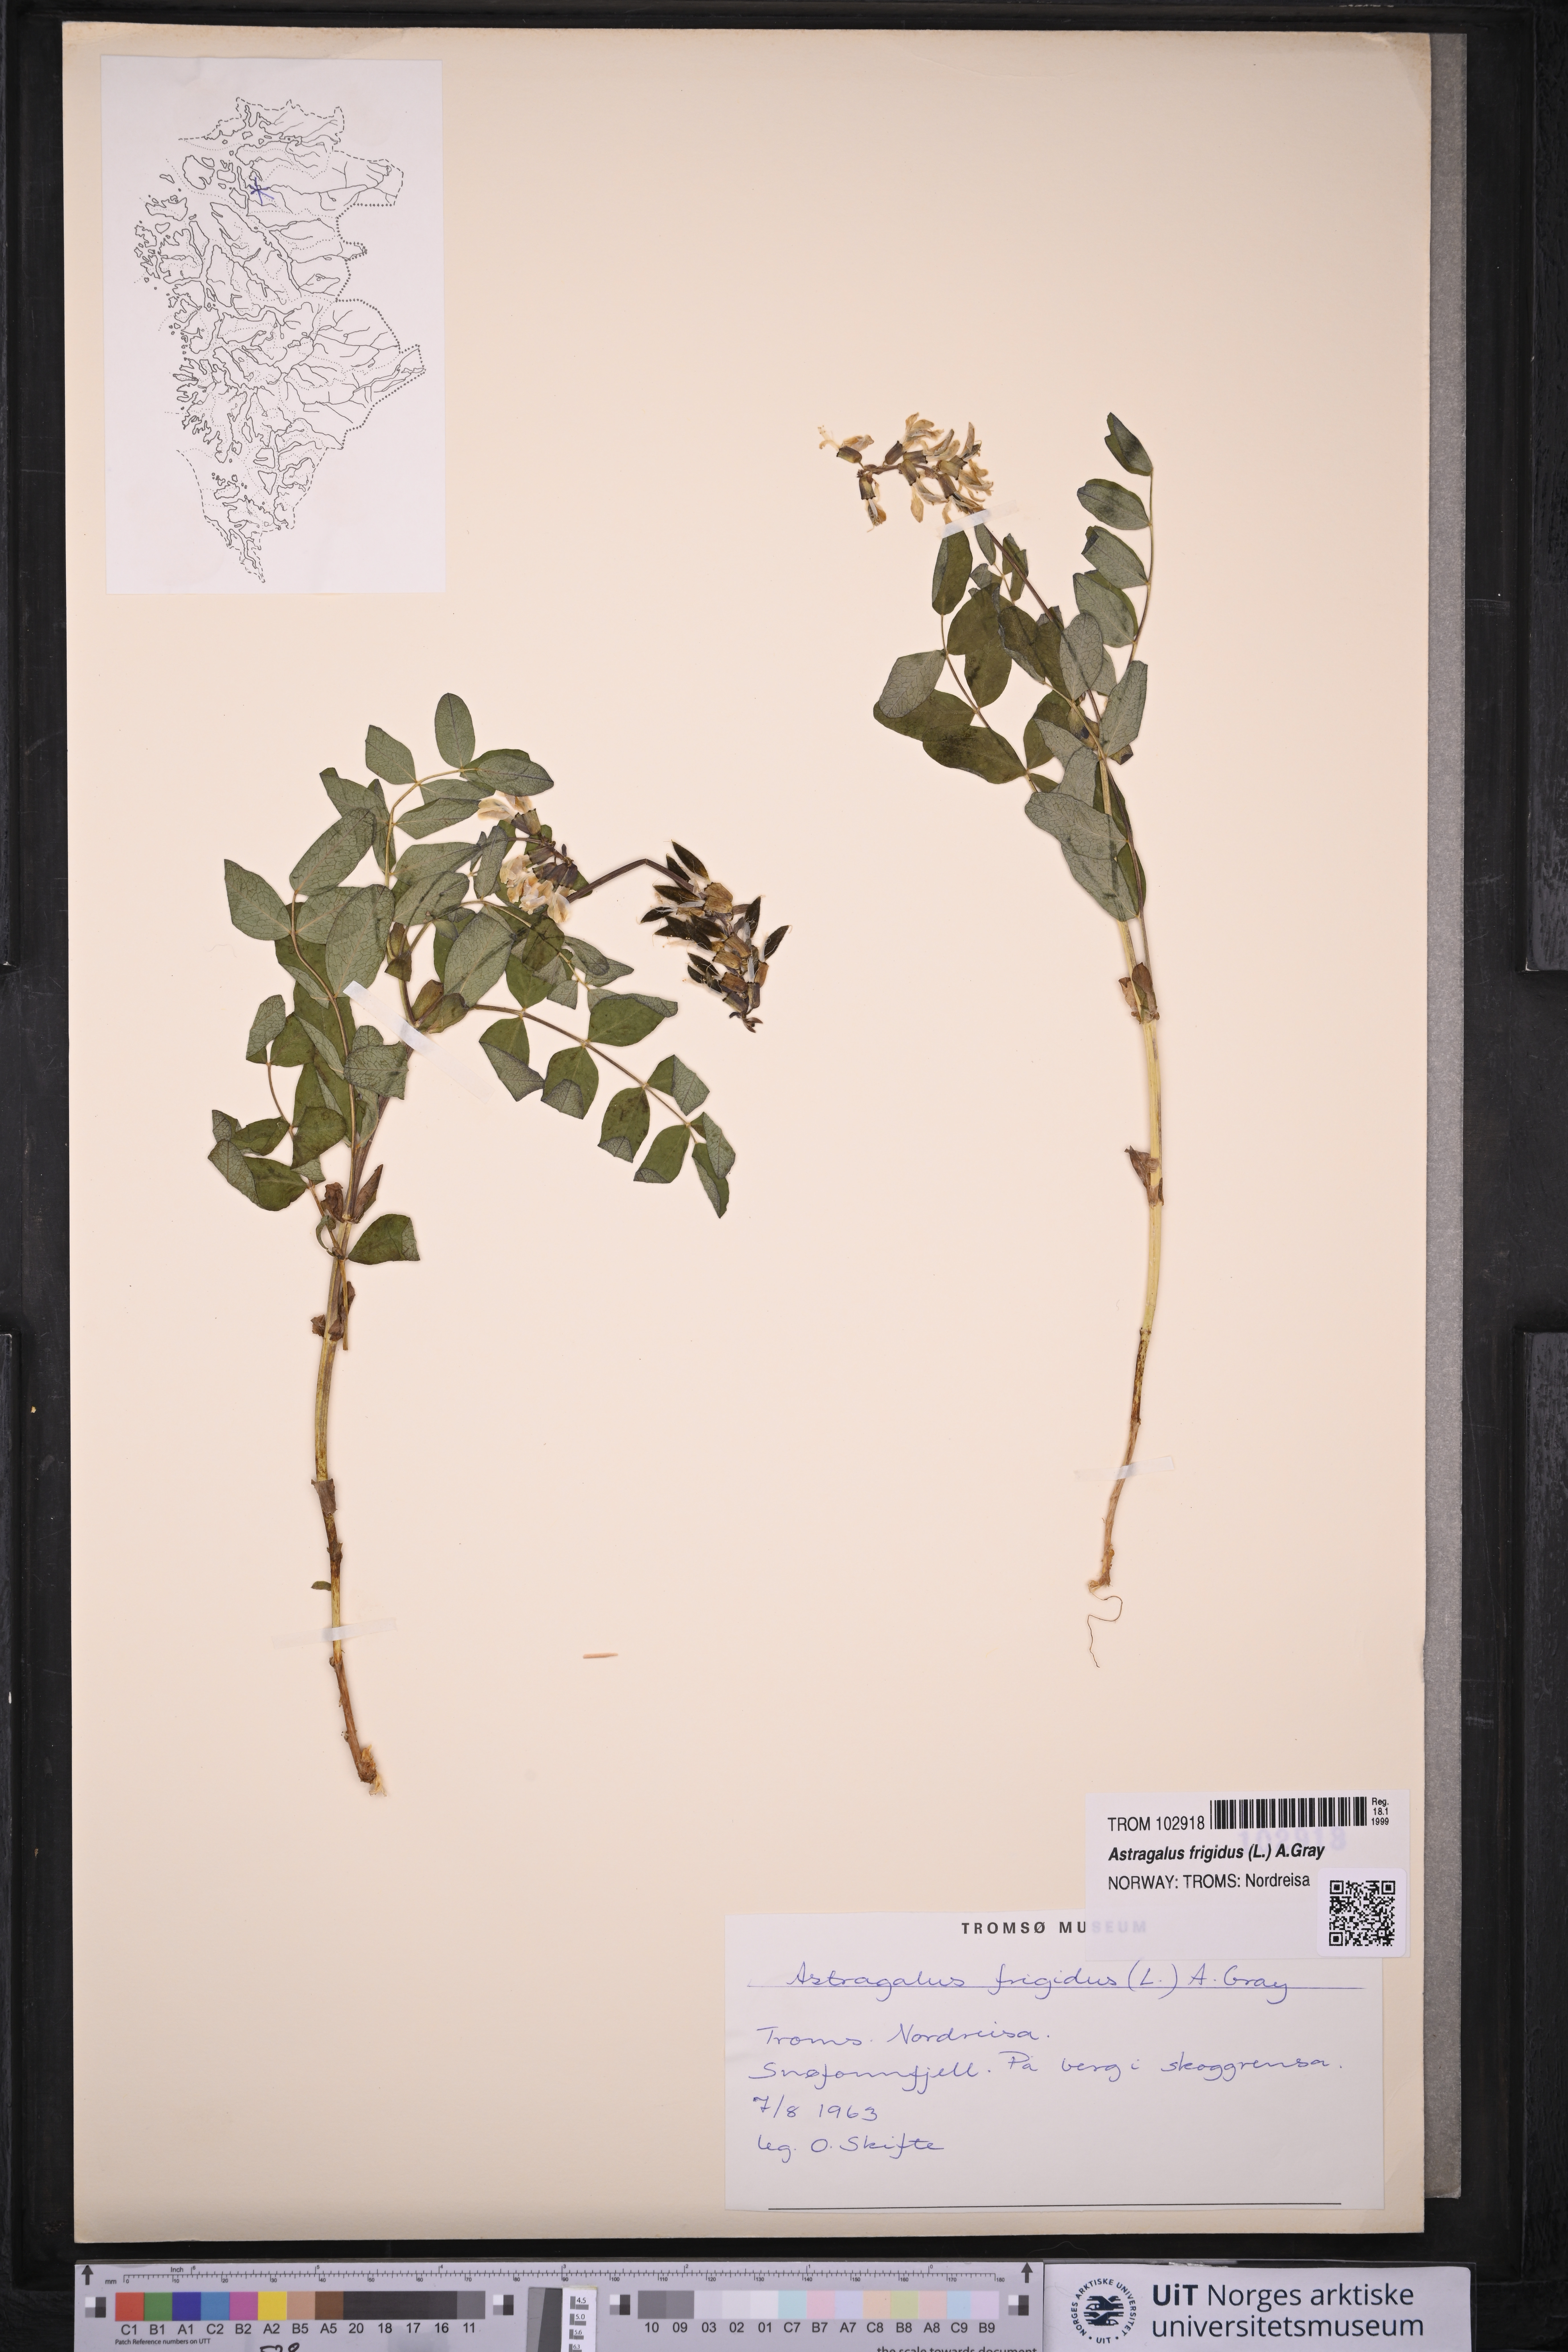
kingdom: Plantae
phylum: Tracheophyta
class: Magnoliopsida
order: Fabales
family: Fabaceae
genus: Astragalus
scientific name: Astragalus frigidus
